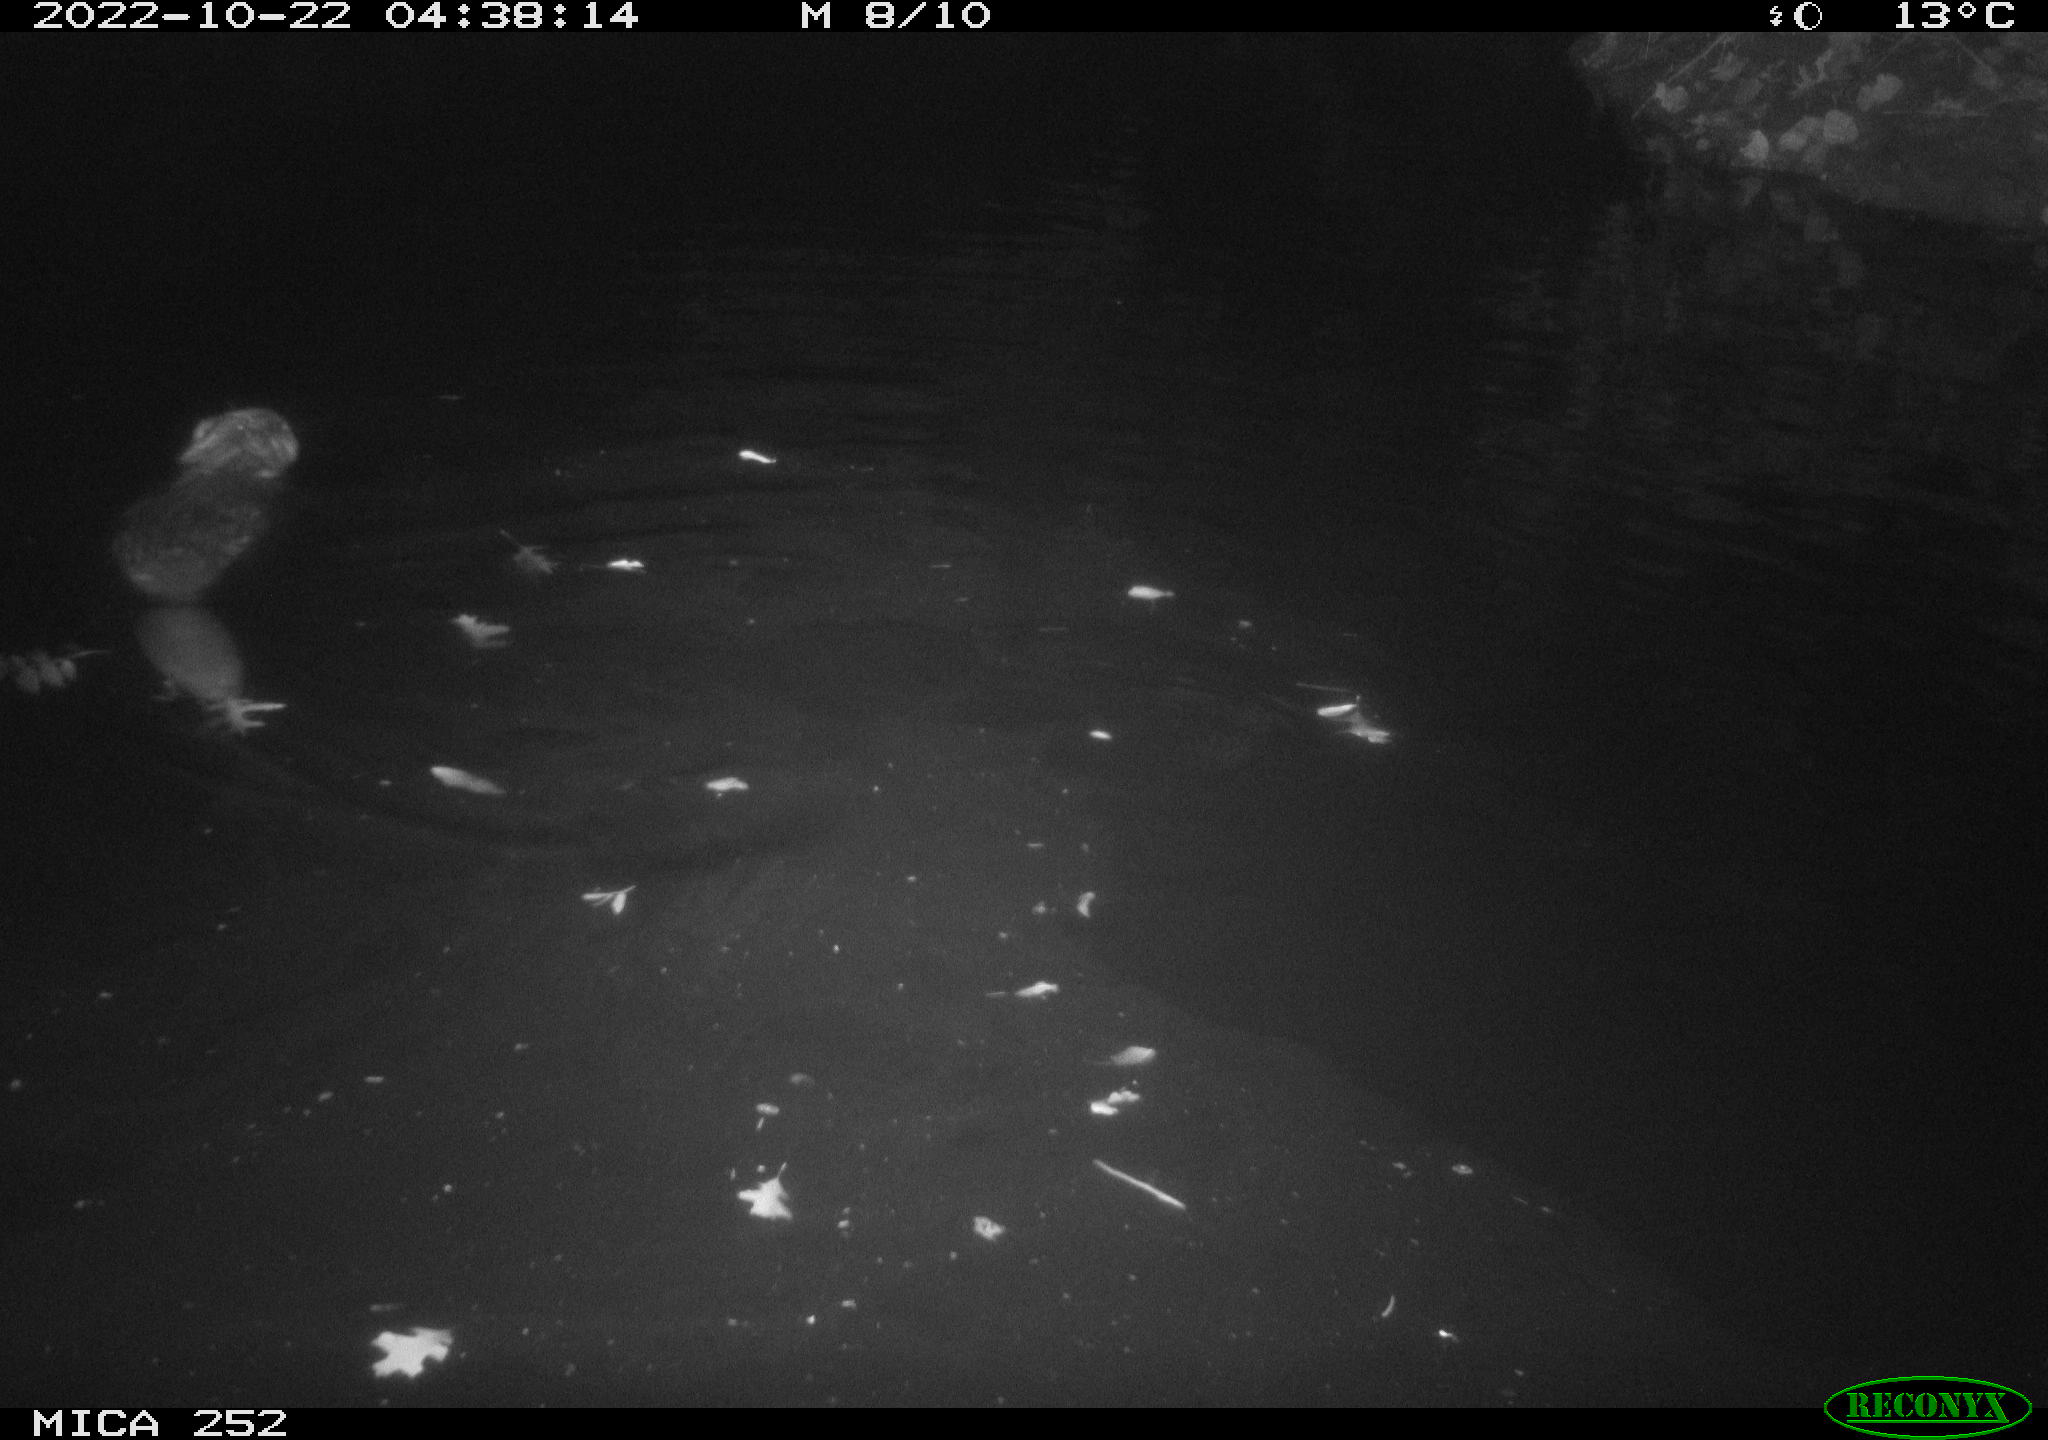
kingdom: Animalia
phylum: Chordata
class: Mammalia
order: Rodentia
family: Castoridae
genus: Castor
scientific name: Castor fiber
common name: Eurasian beaver
